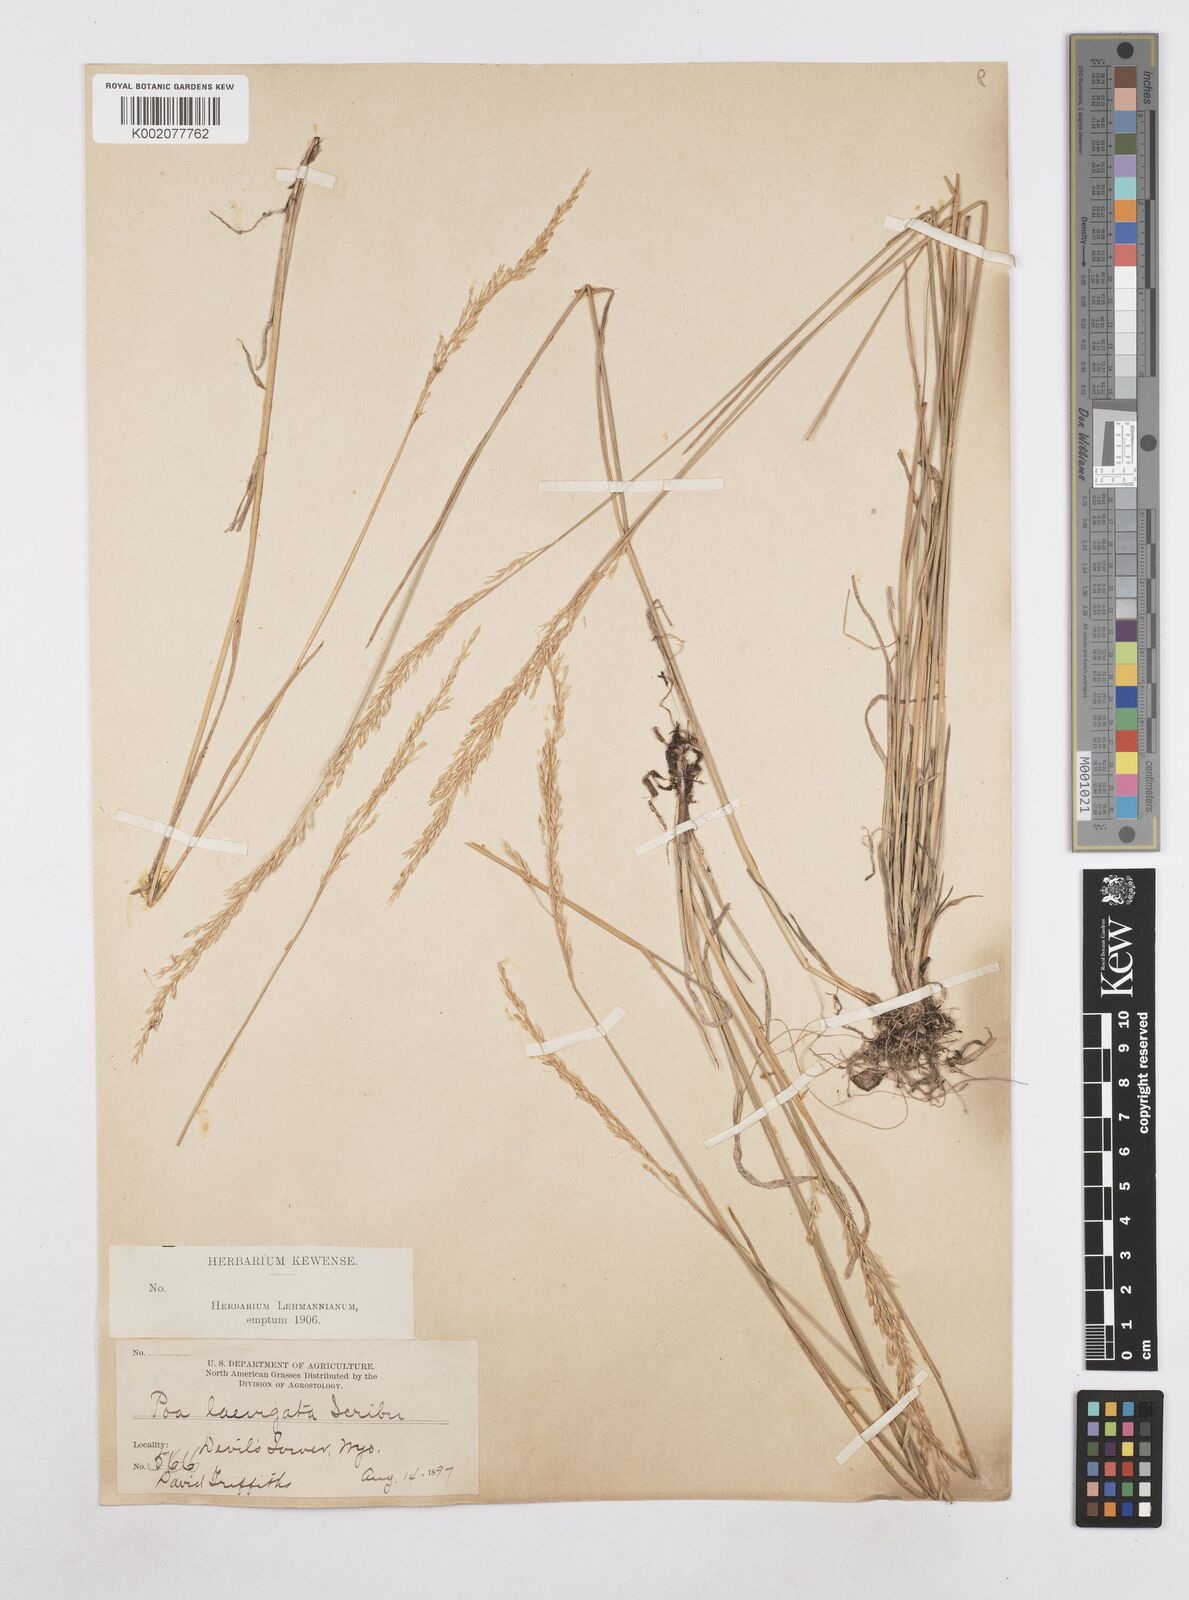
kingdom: Plantae
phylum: Tracheophyta
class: Liliopsida
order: Poales
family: Poaceae
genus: Poa
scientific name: Poa secunda
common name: Sandberg bluegrass
